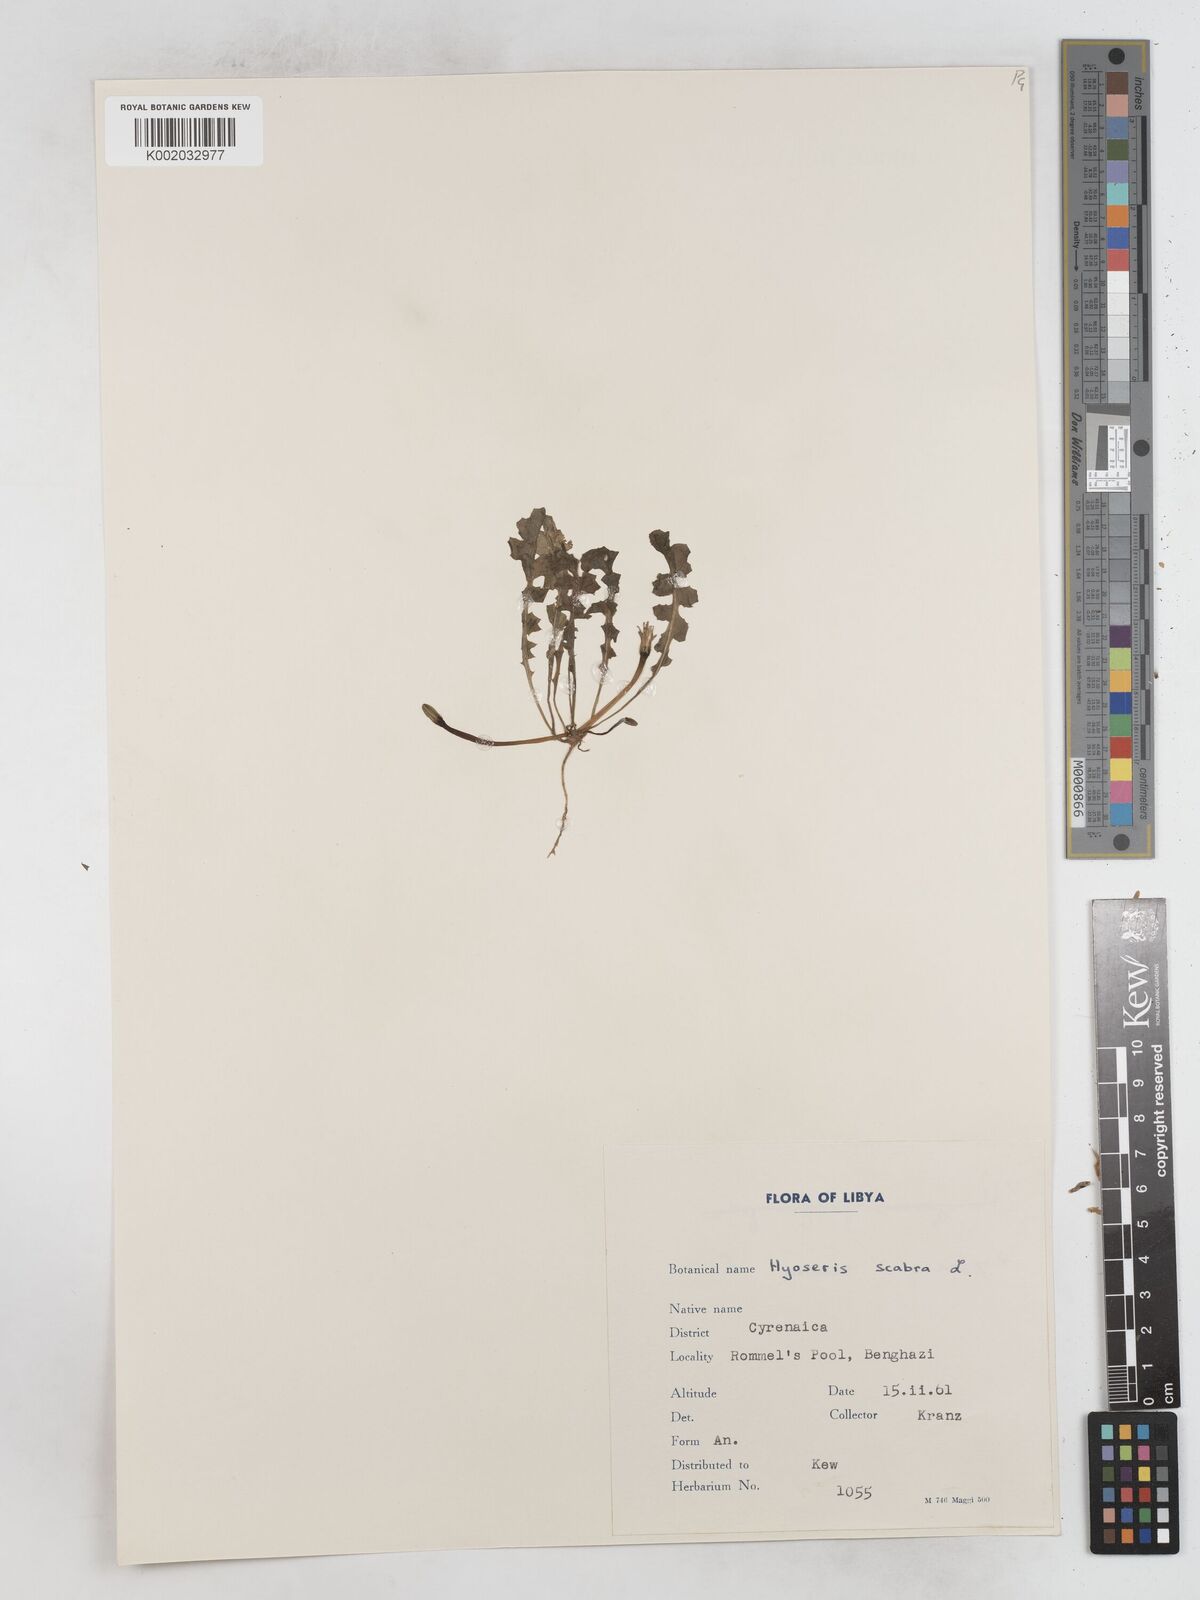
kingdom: Plantae
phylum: Tracheophyta
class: Magnoliopsida
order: Asterales
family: Asteraceae
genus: Hyoseris
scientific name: Hyoseris scabra
